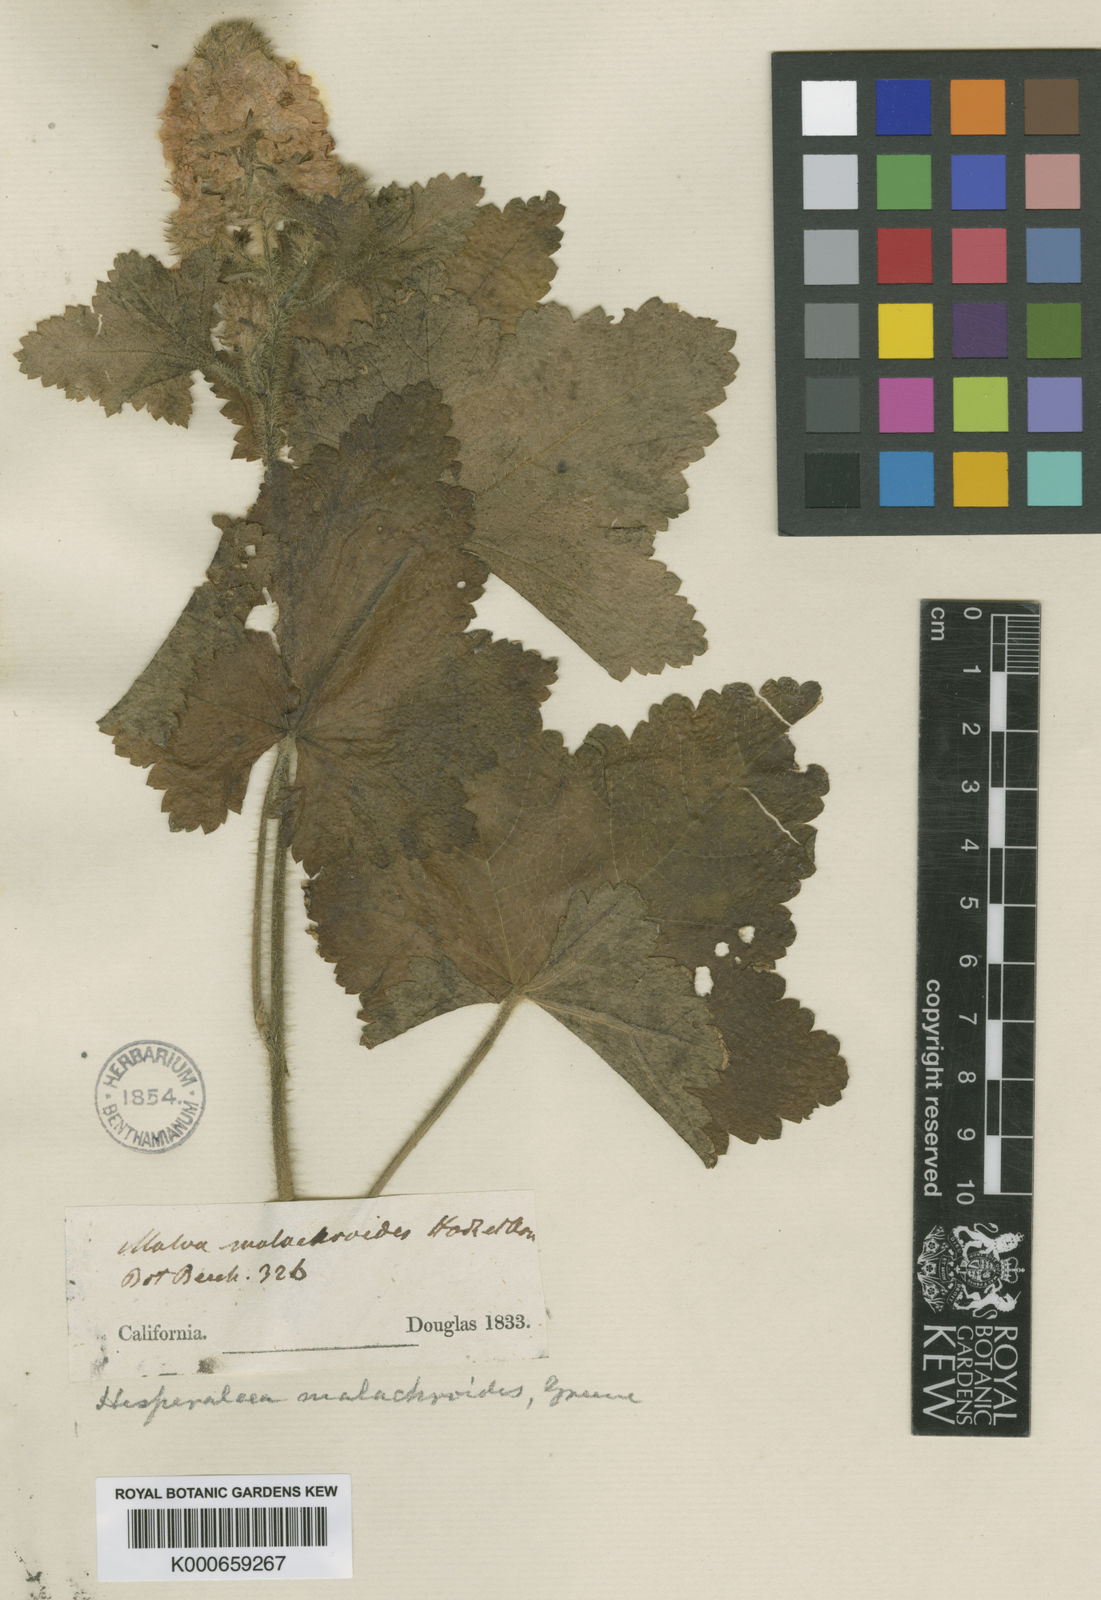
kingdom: Plantae
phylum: Tracheophyta
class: Magnoliopsida
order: Malvales
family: Malvaceae
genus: Sidalcea
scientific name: Sidalcea malachroides
